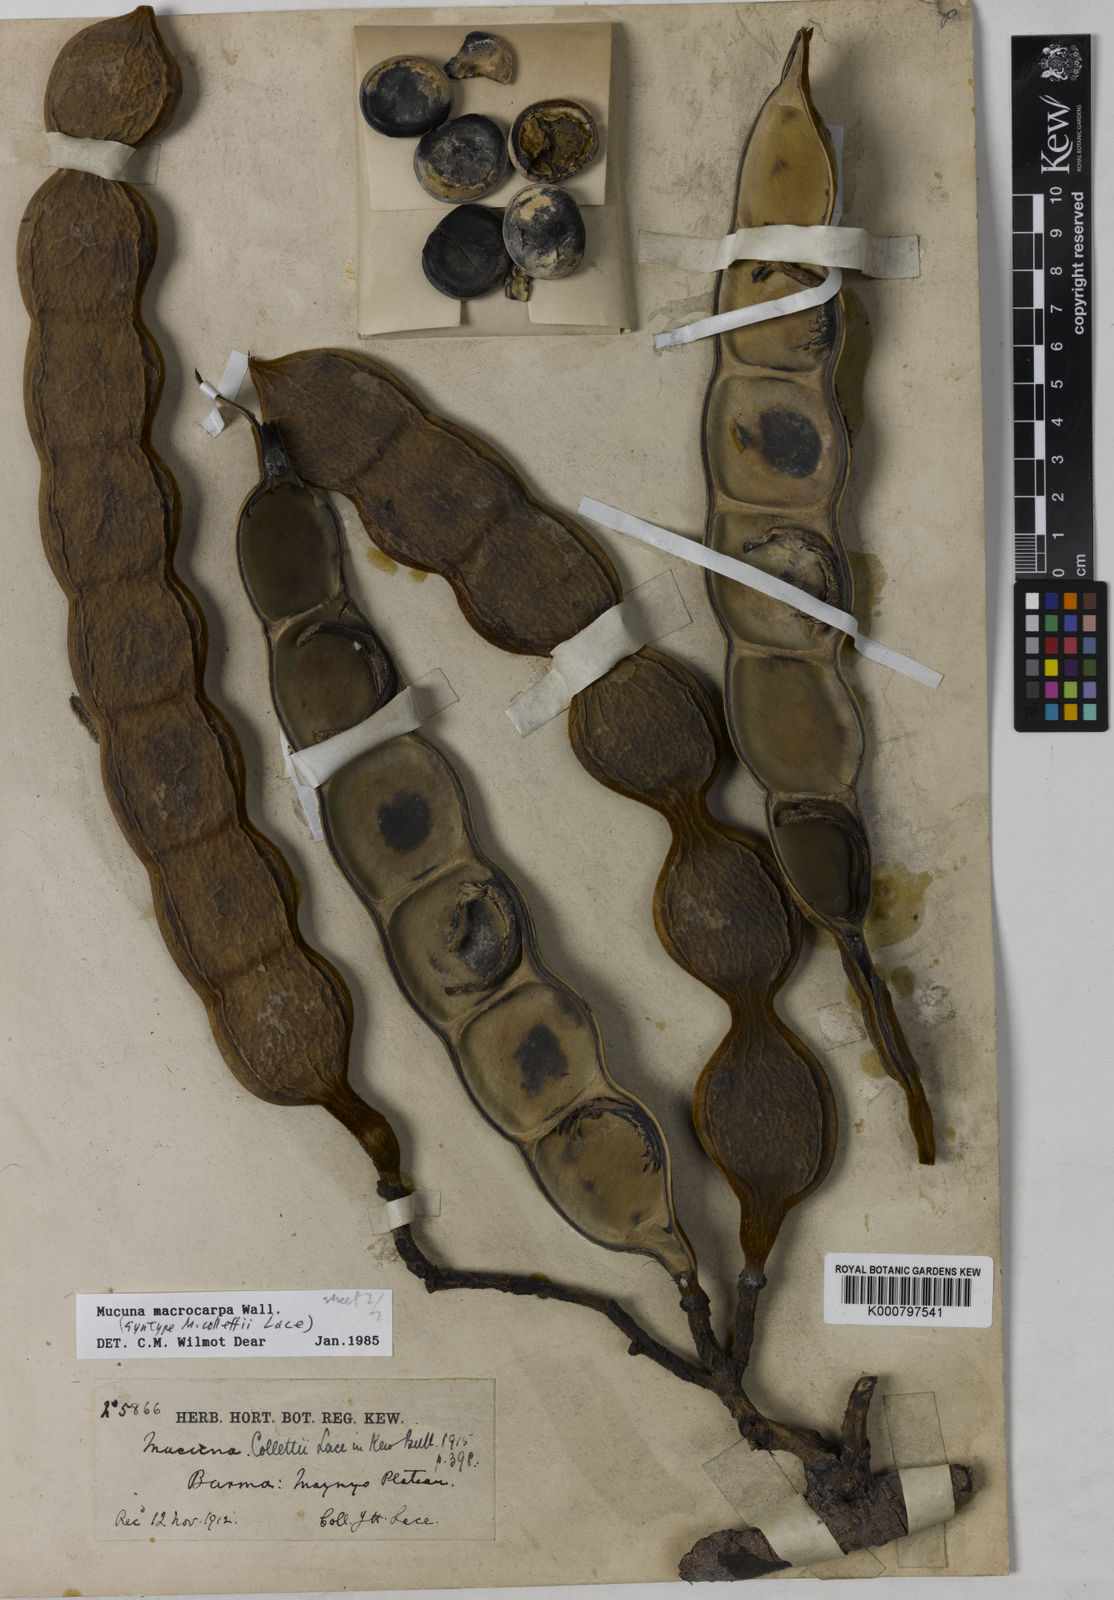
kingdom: Plantae
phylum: Tracheophyta
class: Magnoliopsida
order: Fabales
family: Fabaceae
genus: Mucuna
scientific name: Mucuna macrocarpa
